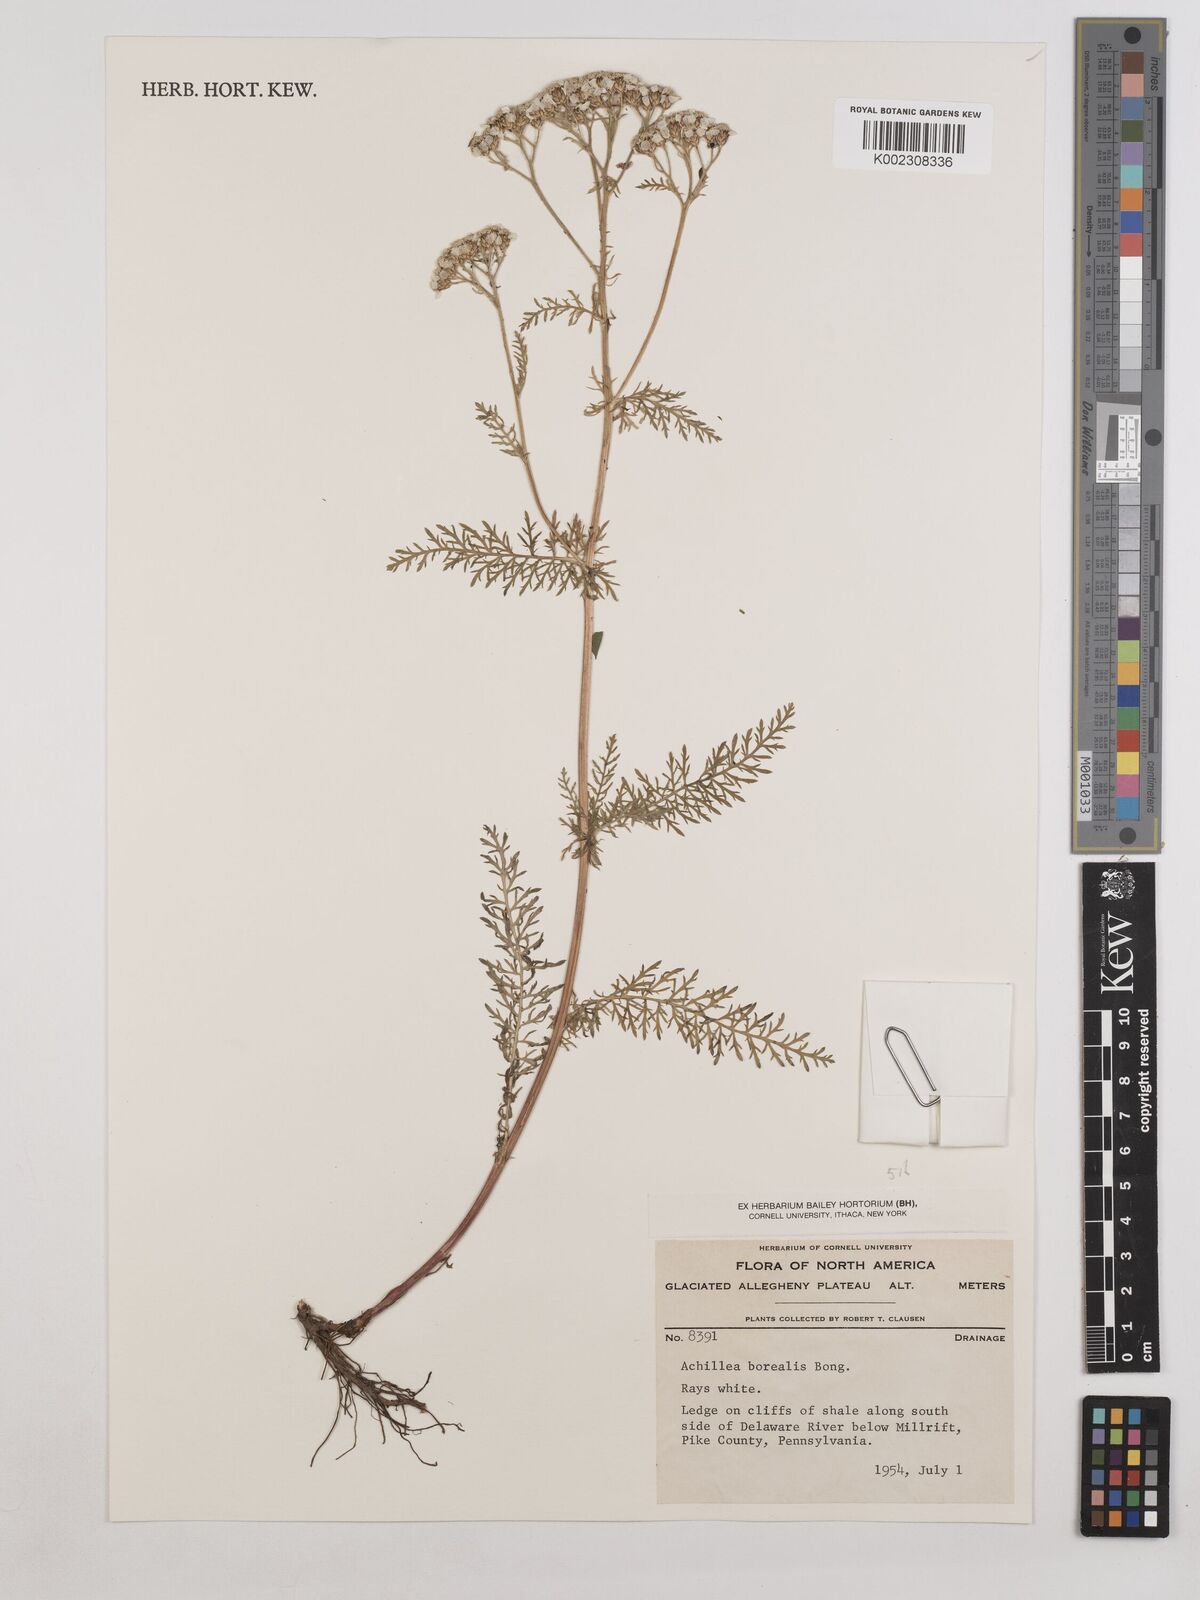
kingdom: Plantae
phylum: Tracheophyta
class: Magnoliopsida
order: Asterales
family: Asteraceae
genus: Achillea
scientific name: Achillea millefolium
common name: Yarrow
